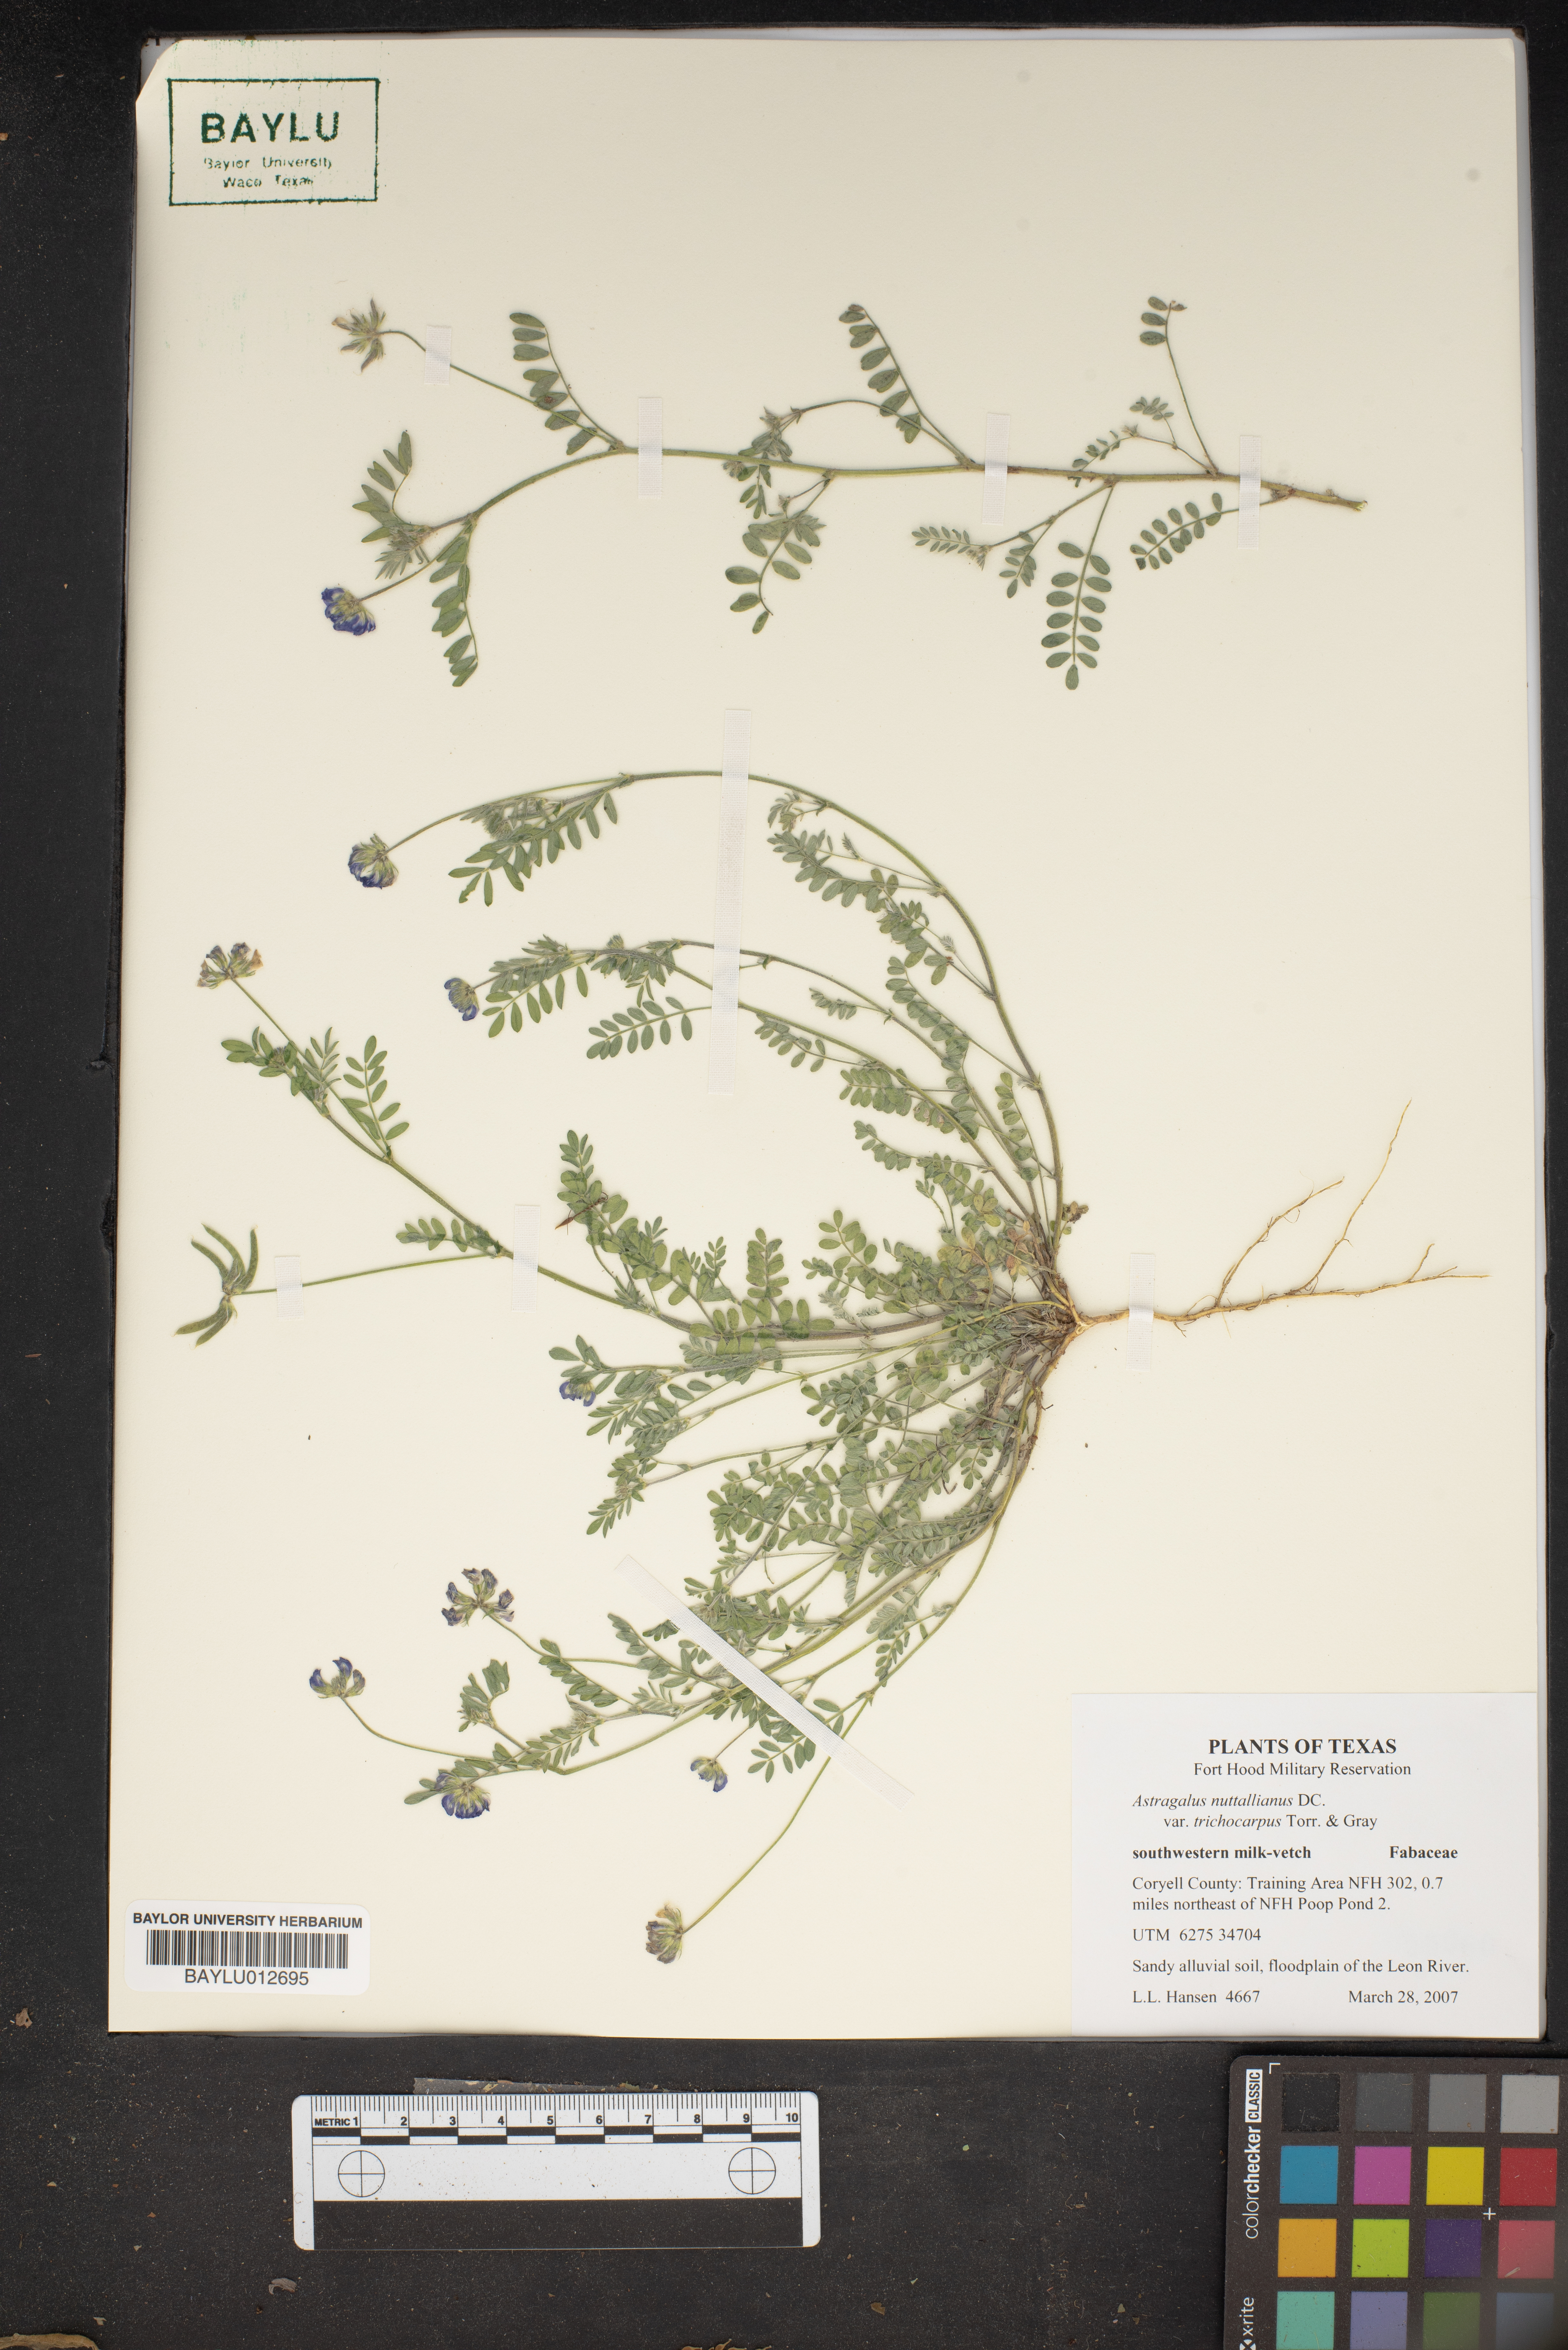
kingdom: Plantae
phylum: Tracheophyta
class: Magnoliopsida
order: Fabales
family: Fabaceae
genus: Astragalus
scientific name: Astragalus nuttallianus
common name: Smallflowered milkvetch
